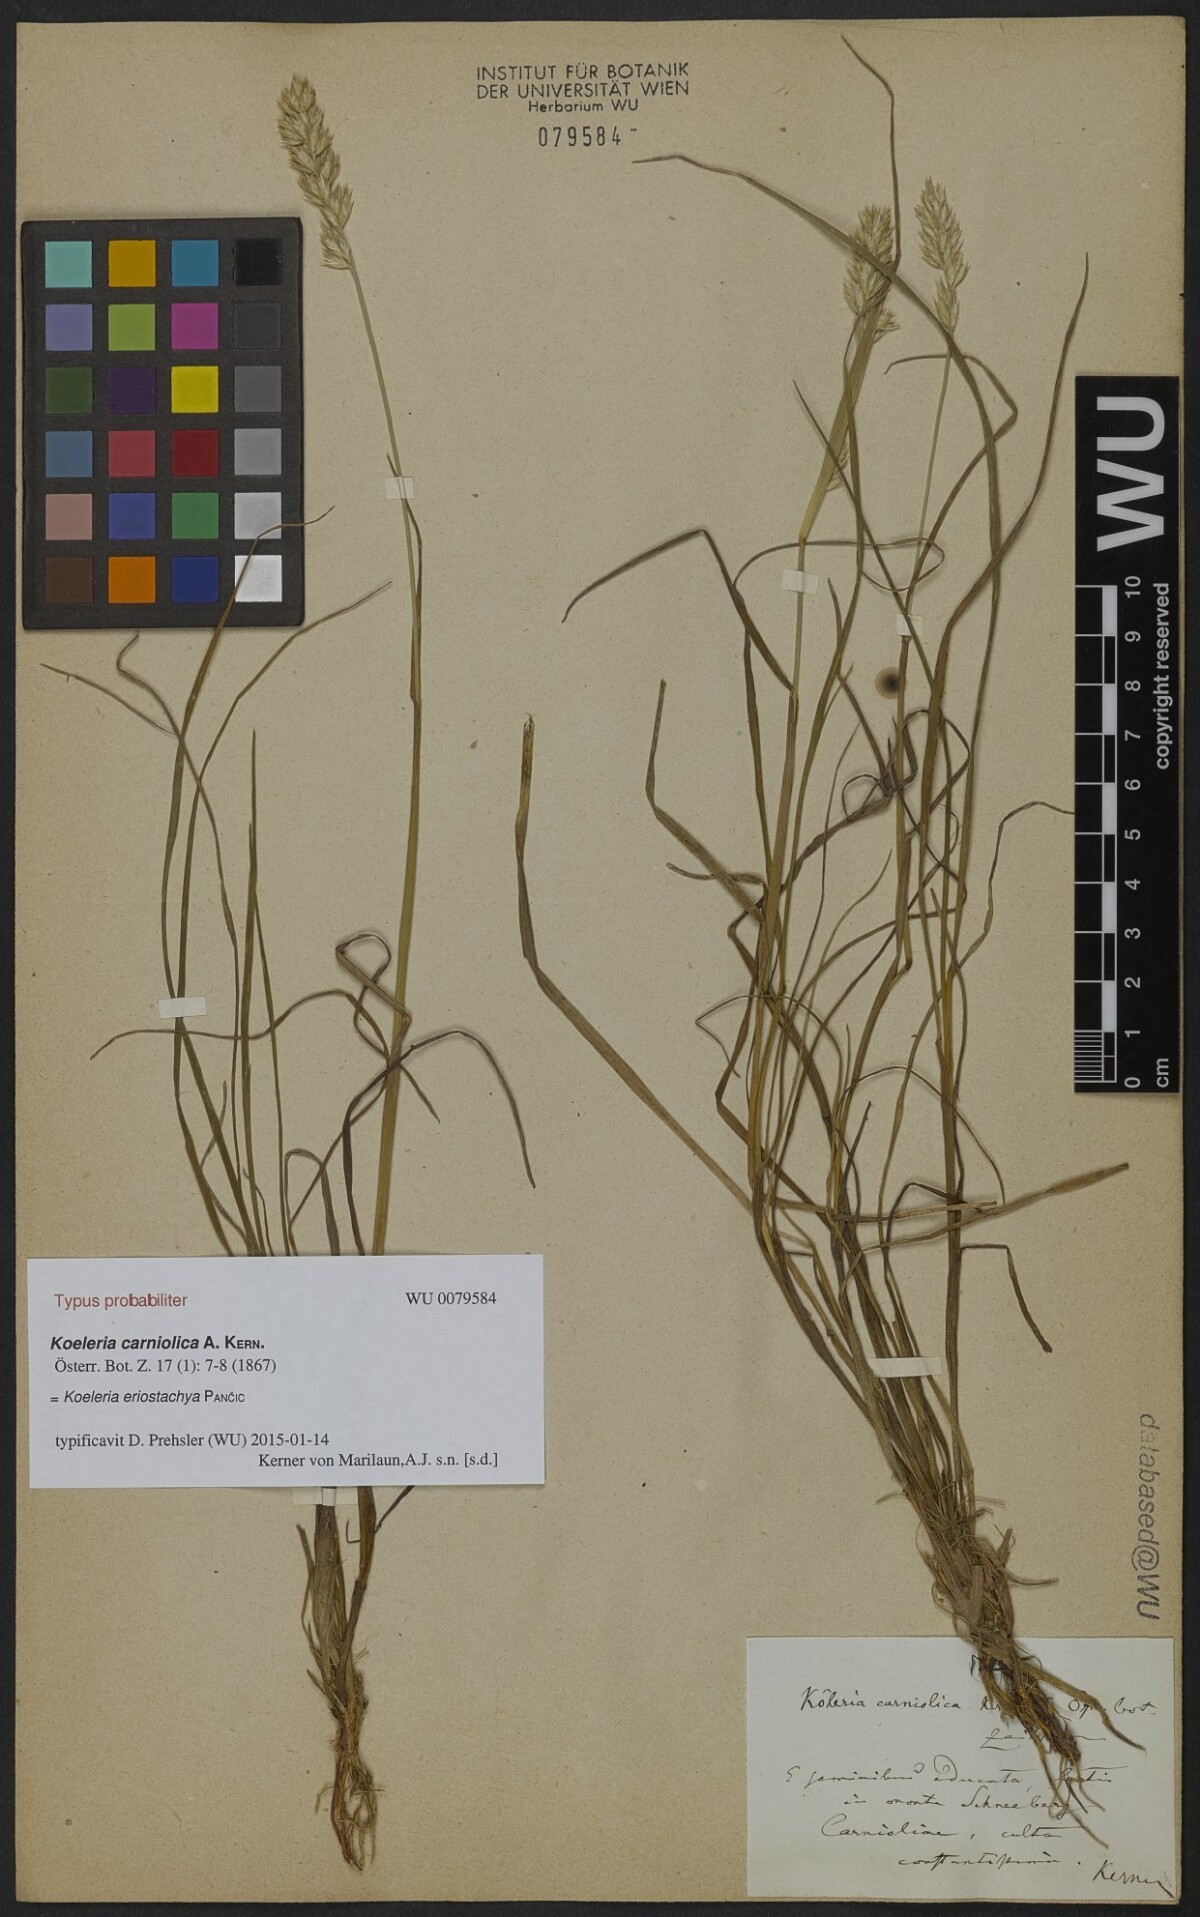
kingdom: Plantae
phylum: Tracheophyta
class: Liliopsida
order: Poales
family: Poaceae
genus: Koeleria
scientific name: Koeleria eriostachya
